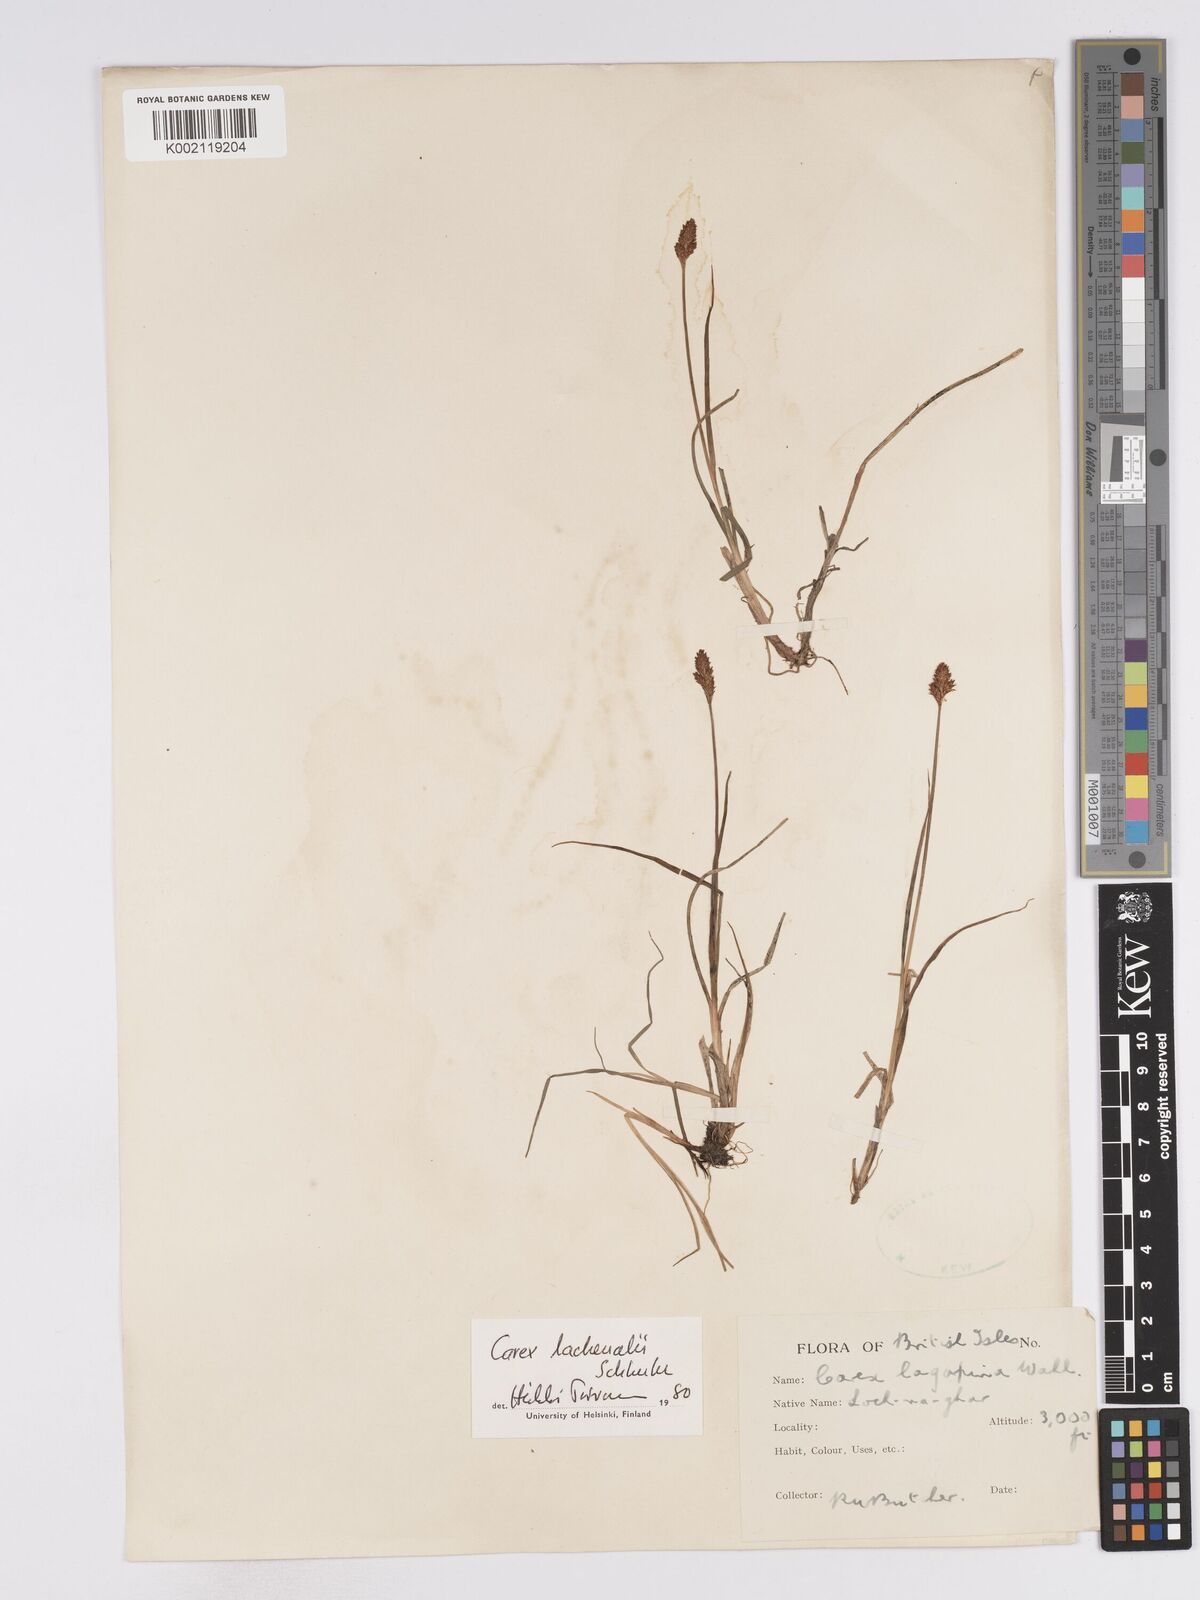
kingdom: Plantae
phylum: Tracheophyta
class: Liliopsida
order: Poales
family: Cyperaceae
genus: Carex
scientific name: Carex lachenalii
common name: Hare's-foot sedge
